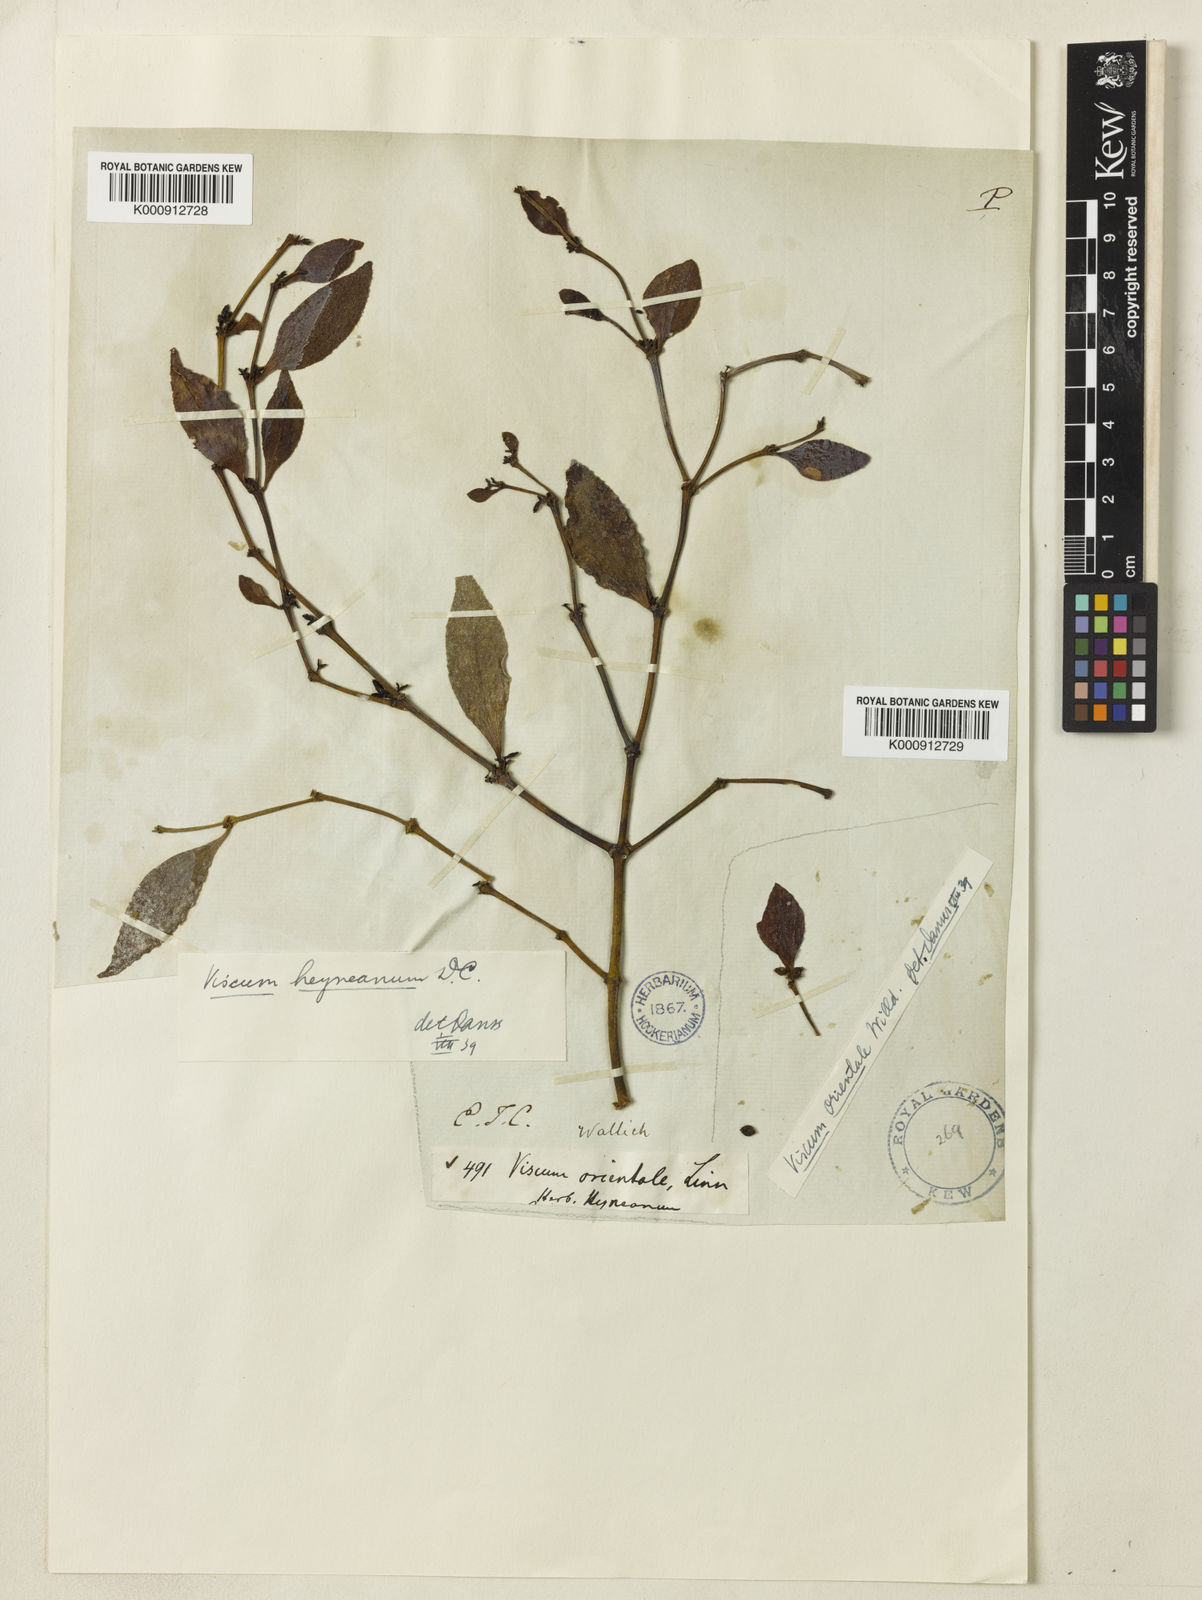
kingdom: Plantae
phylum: Tracheophyta
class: Magnoliopsida
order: Santalales
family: Viscaceae
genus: Viscum
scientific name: Viscum heyneanum
